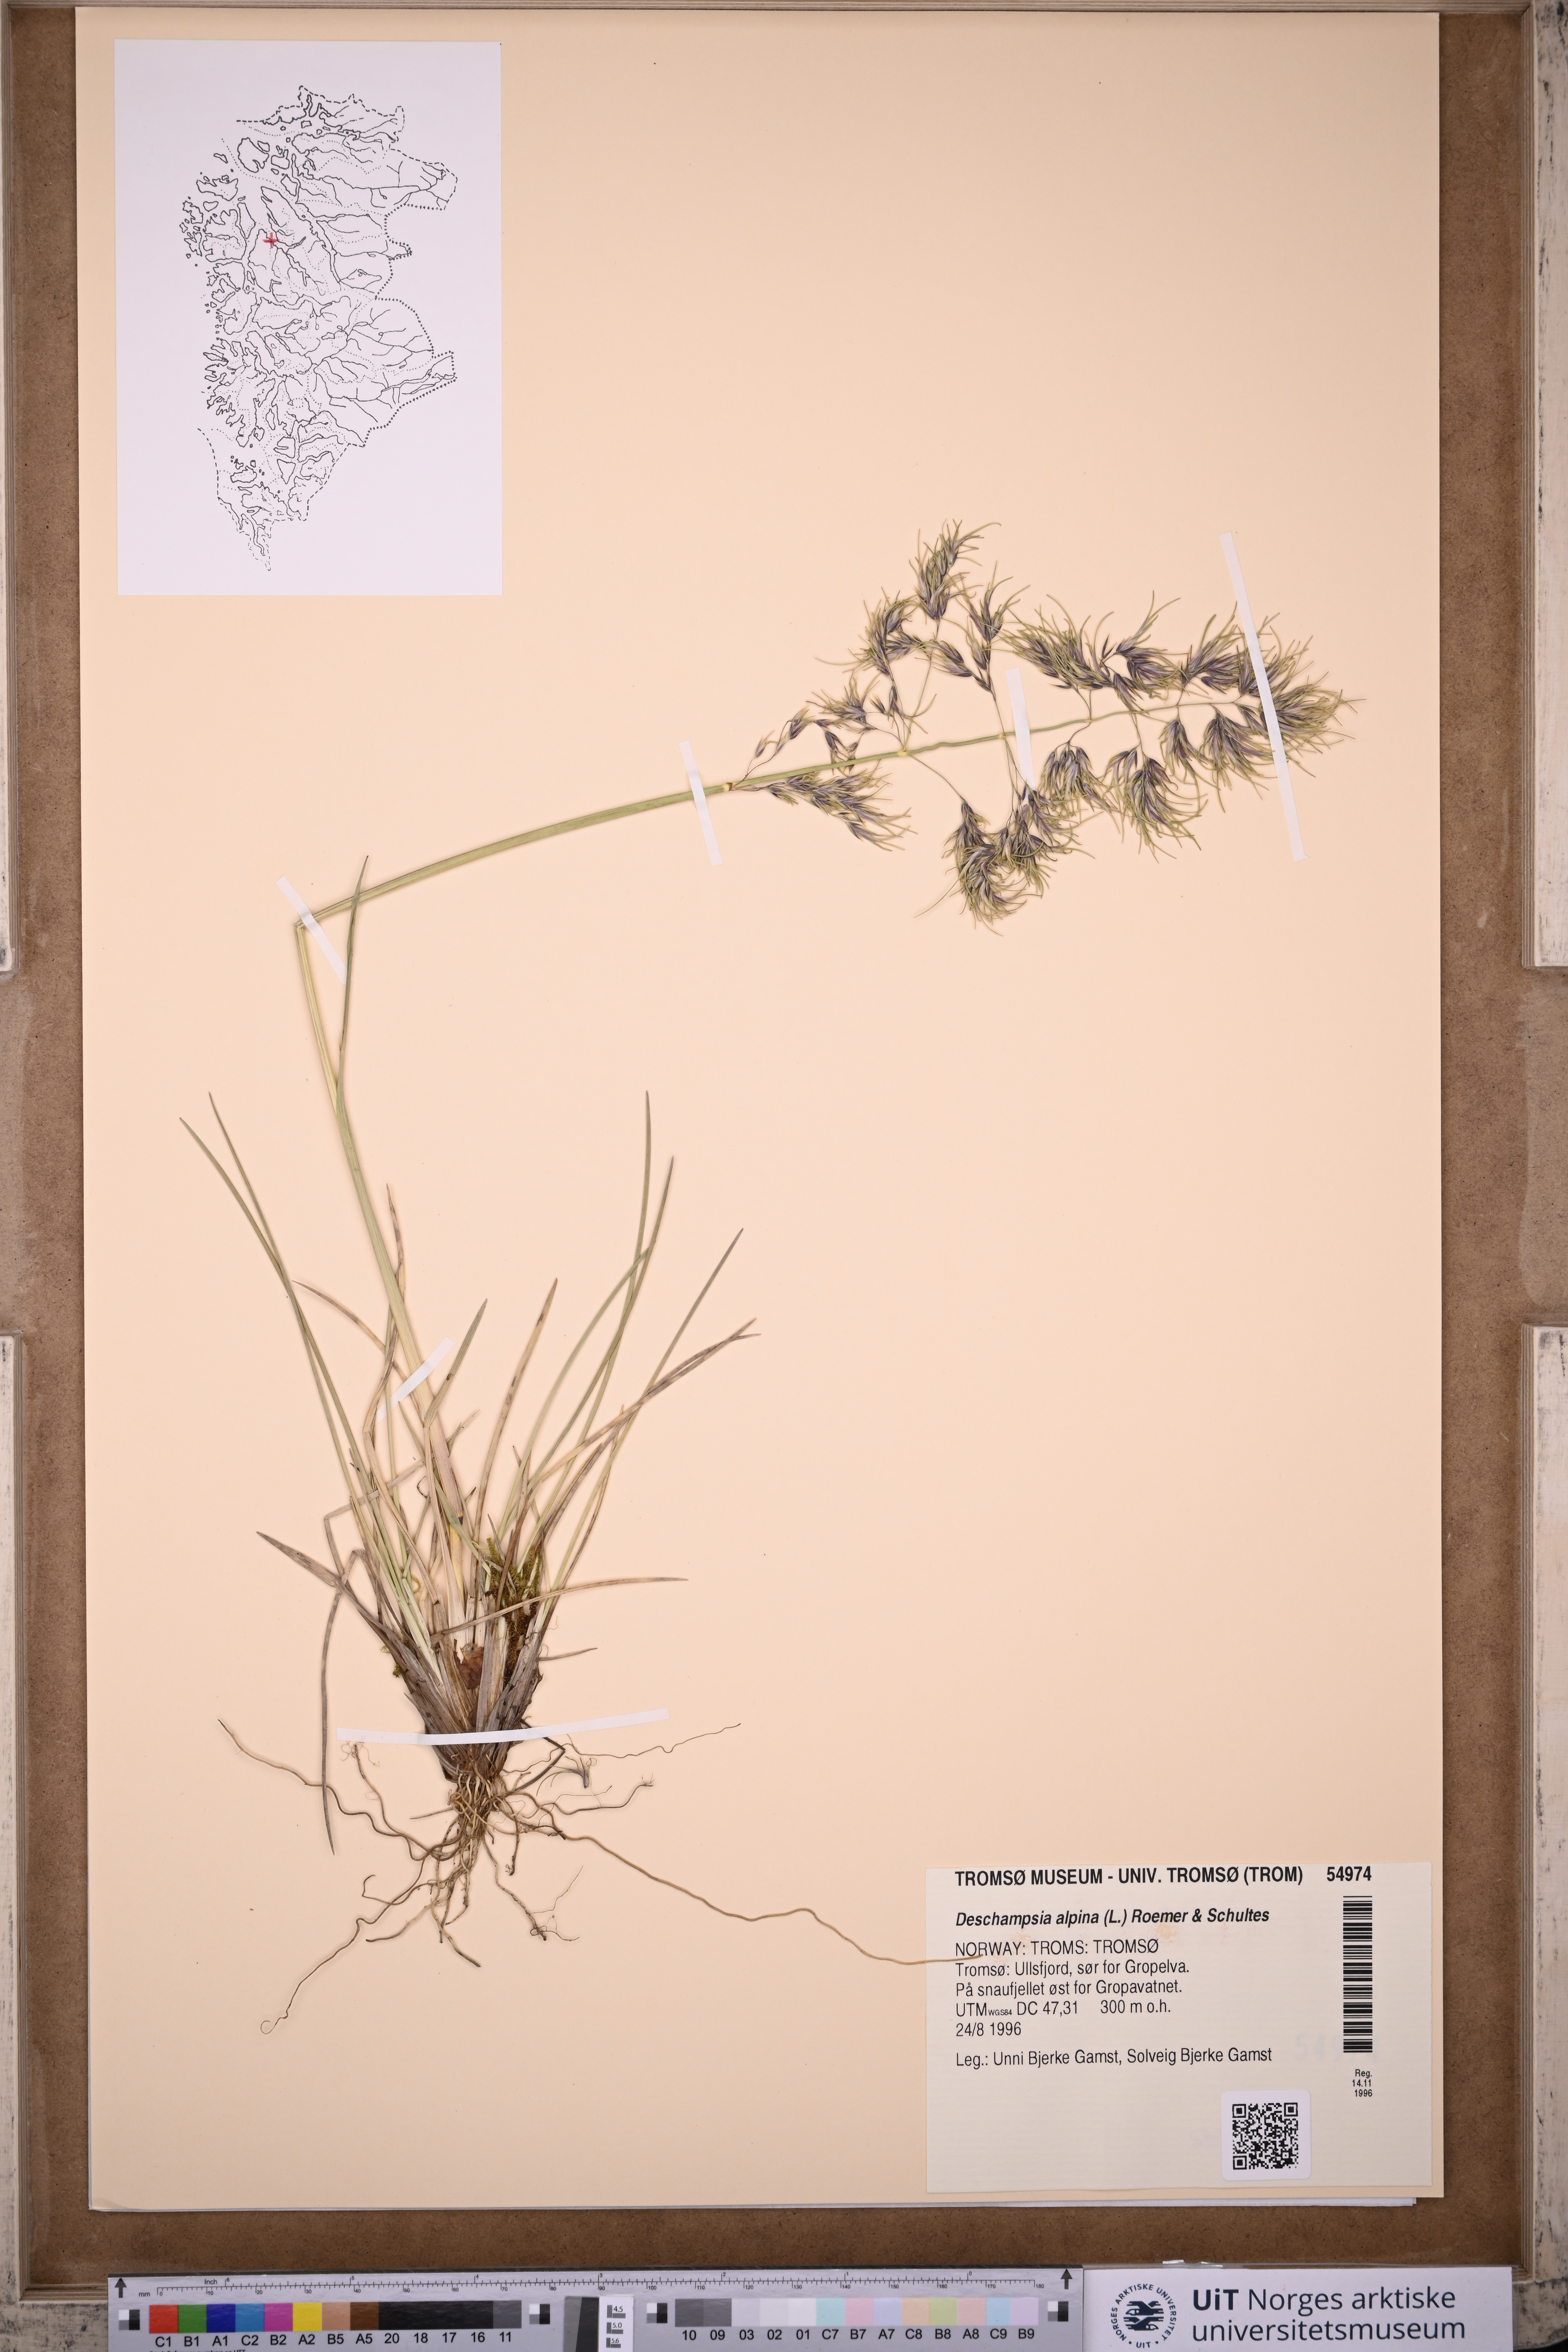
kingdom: Plantae
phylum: Tracheophyta
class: Liliopsida
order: Poales
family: Poaceae
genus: Deschampsia
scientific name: Deschampsia cespitosa
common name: Tufted hair-grass
